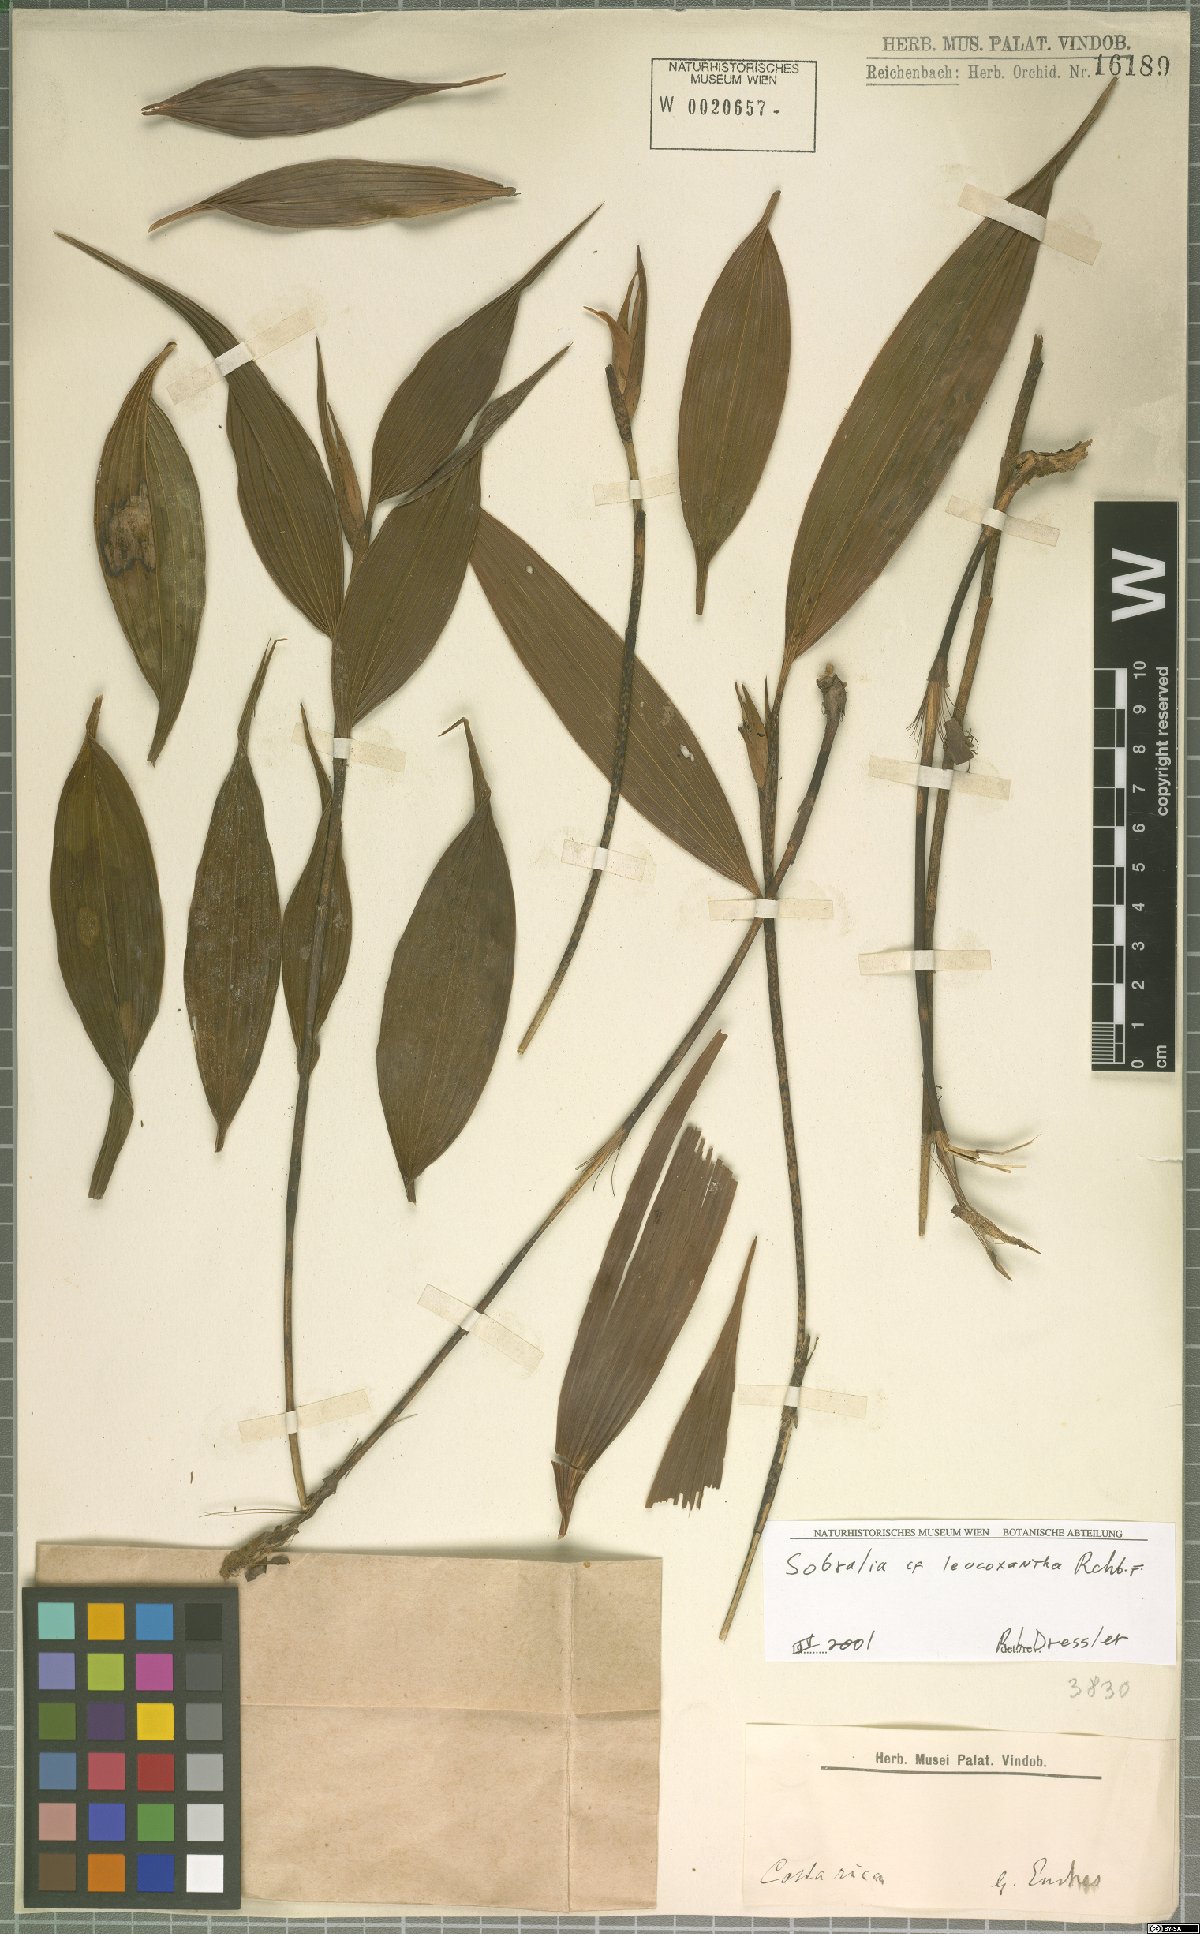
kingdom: Plantae
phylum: Tracheophyta
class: Liliopsida
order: Asparagales
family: Orchidaceae
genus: Sobralia
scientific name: Sobralia leucoxantha
